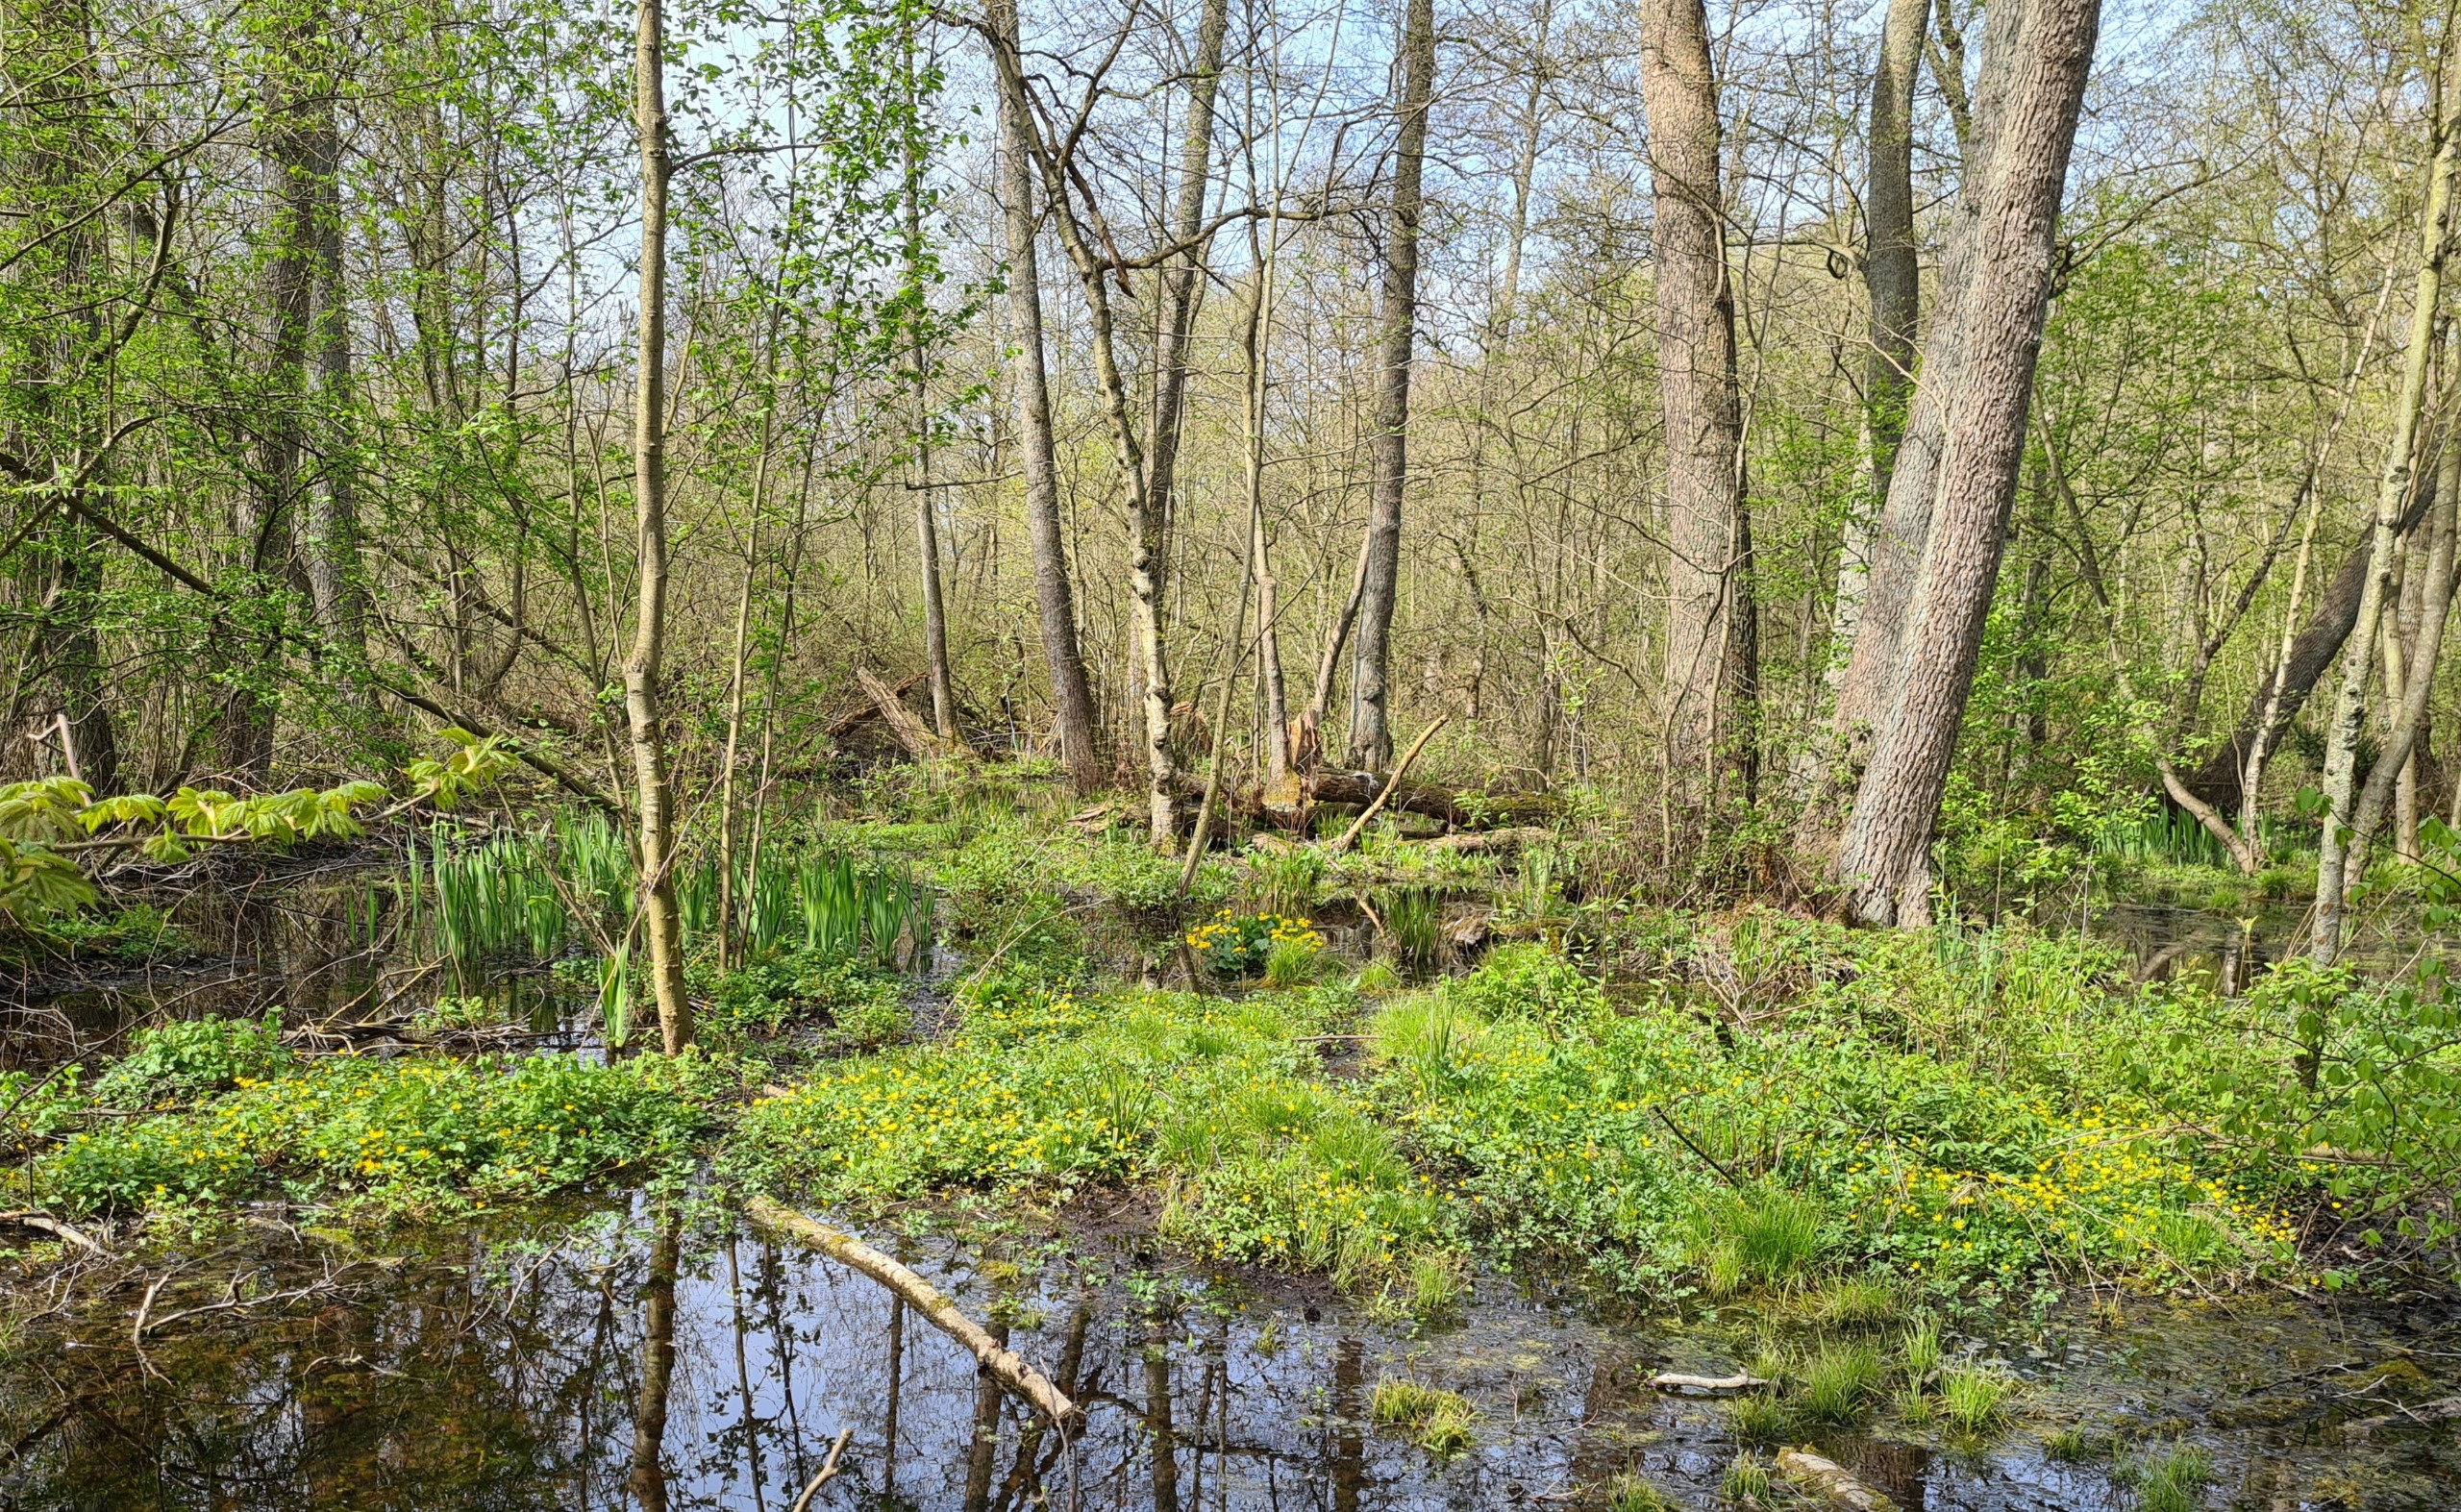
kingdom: Plantae
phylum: Tracheophyta
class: Magnoliopsida
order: Ranunculales
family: Ranunculaceae
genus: Caltha
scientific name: Caltha palustris
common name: Eng-kabbeleje
